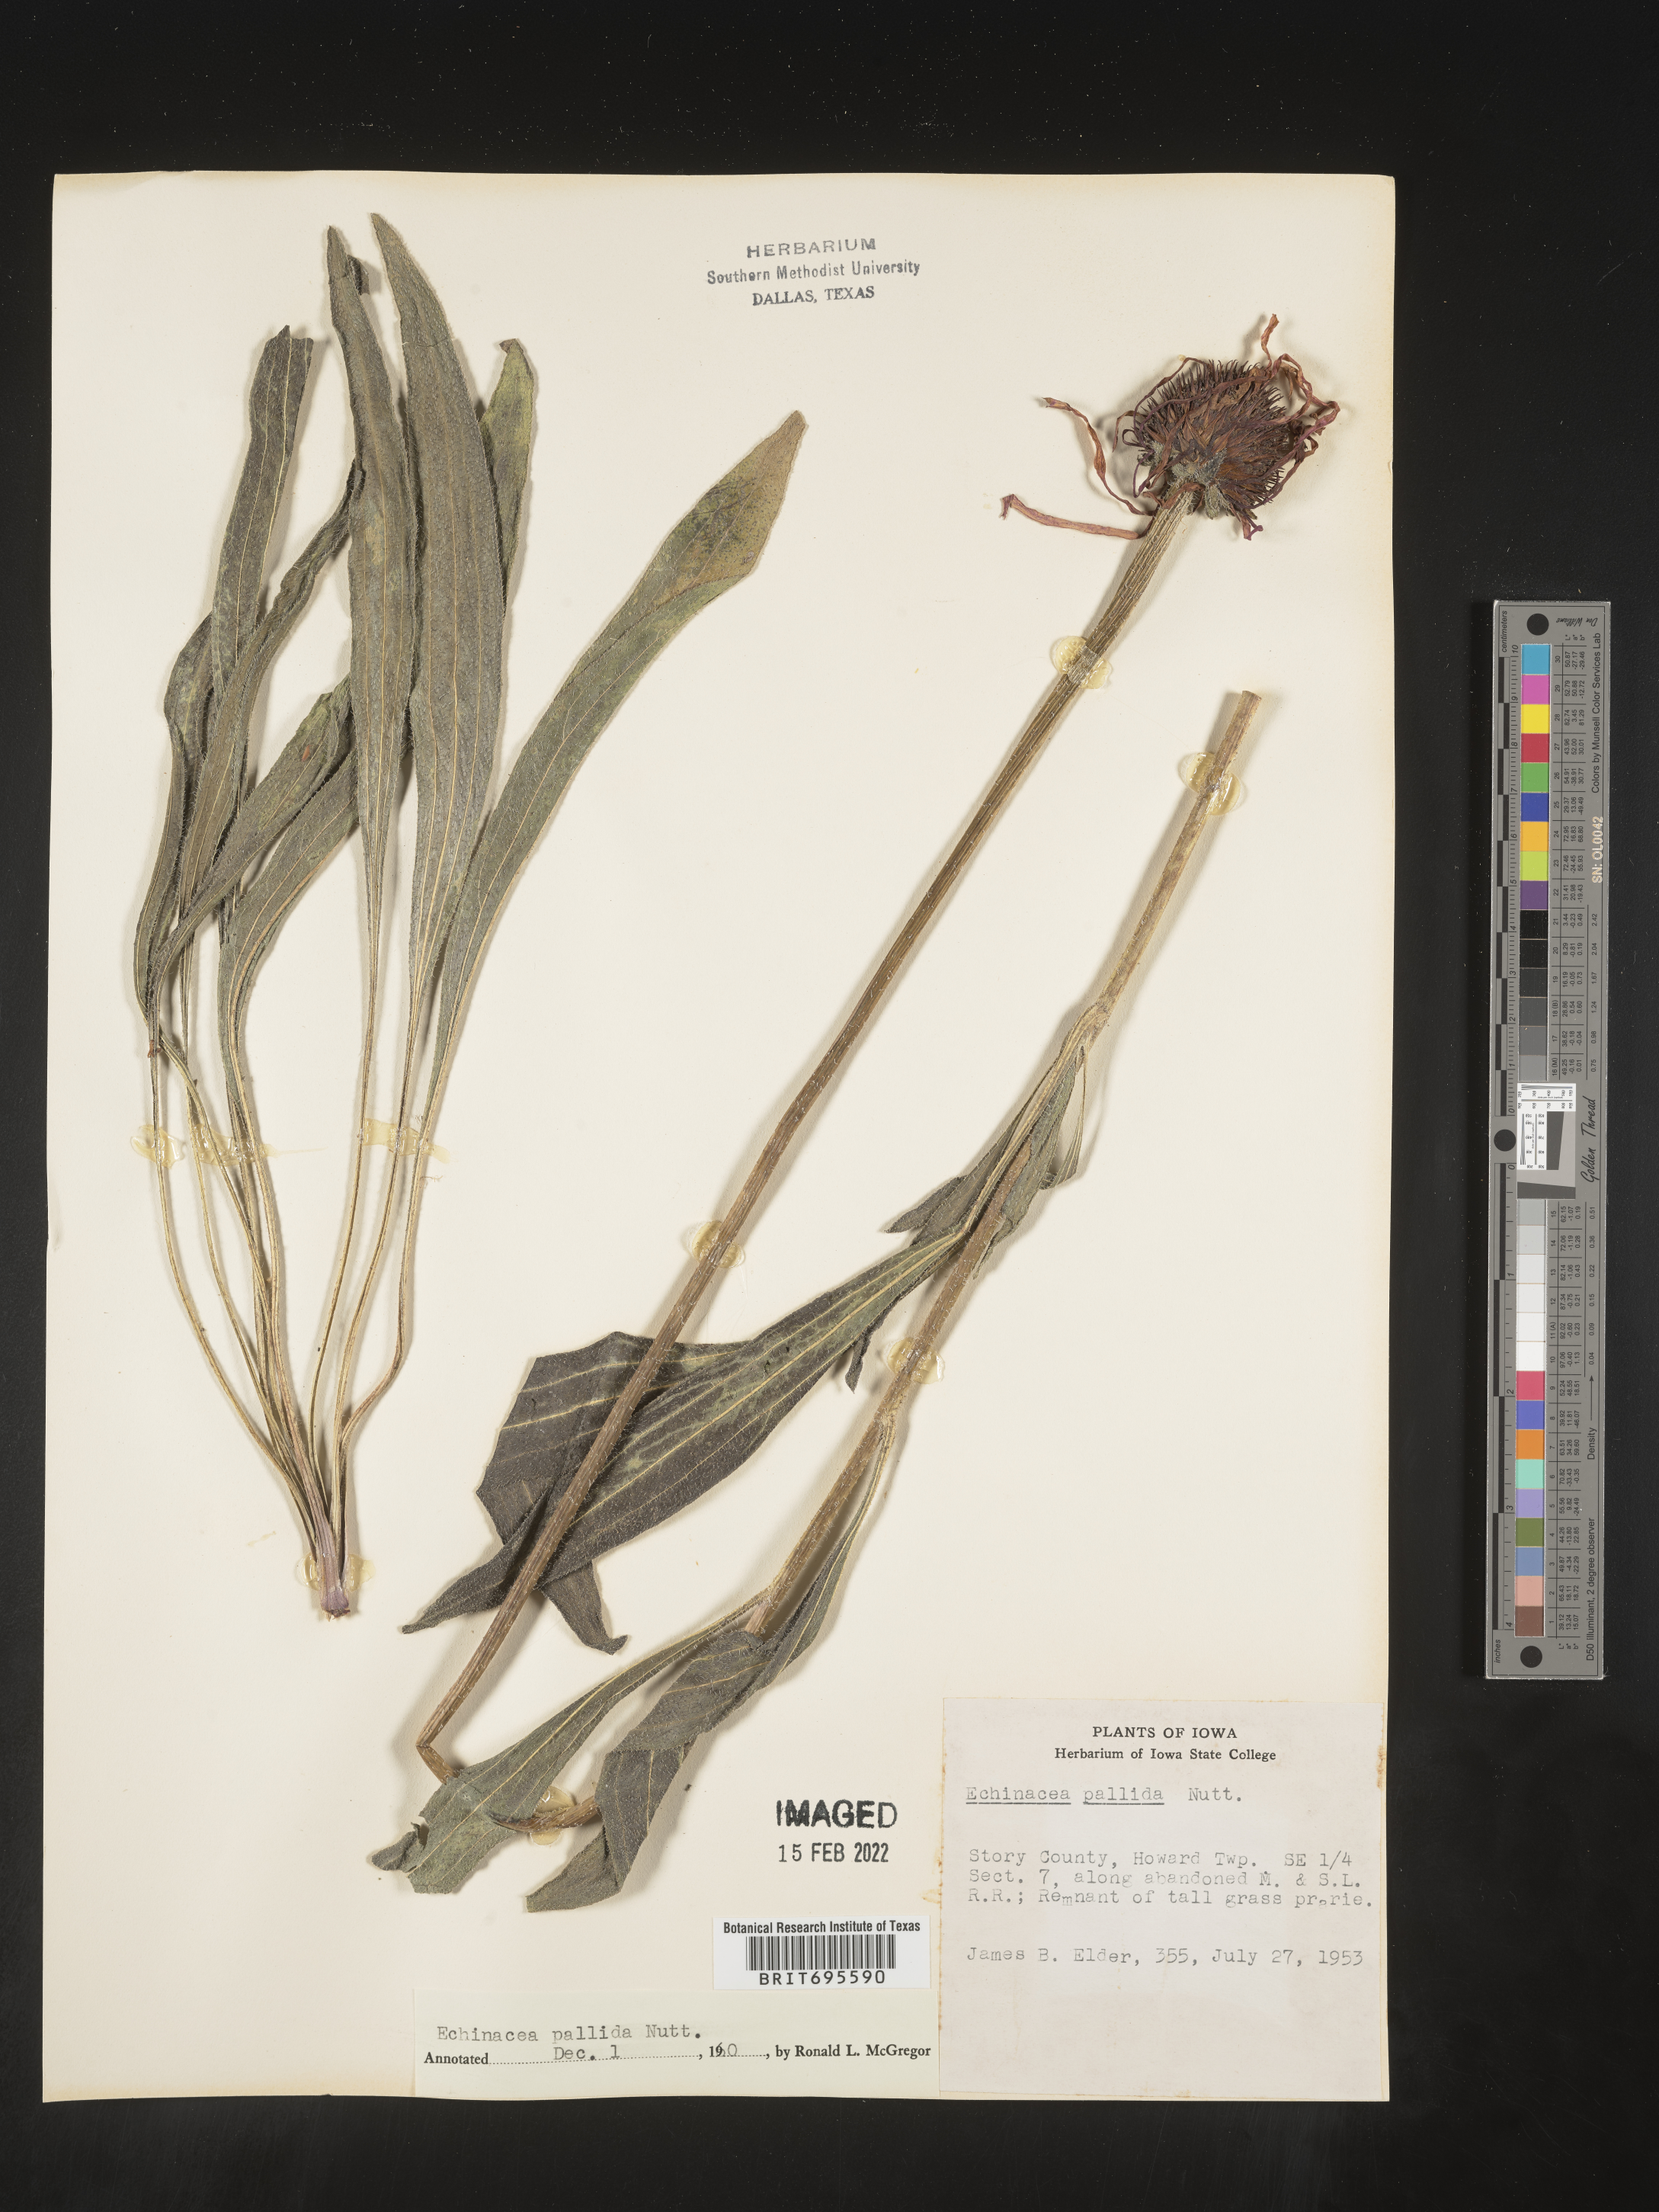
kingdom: Plantae
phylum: Tracheophyta
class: Magnoliopsida
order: Asterales
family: Asteraceae
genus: Echinacea
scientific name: Echinacea pallida
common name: Pale echinacea
